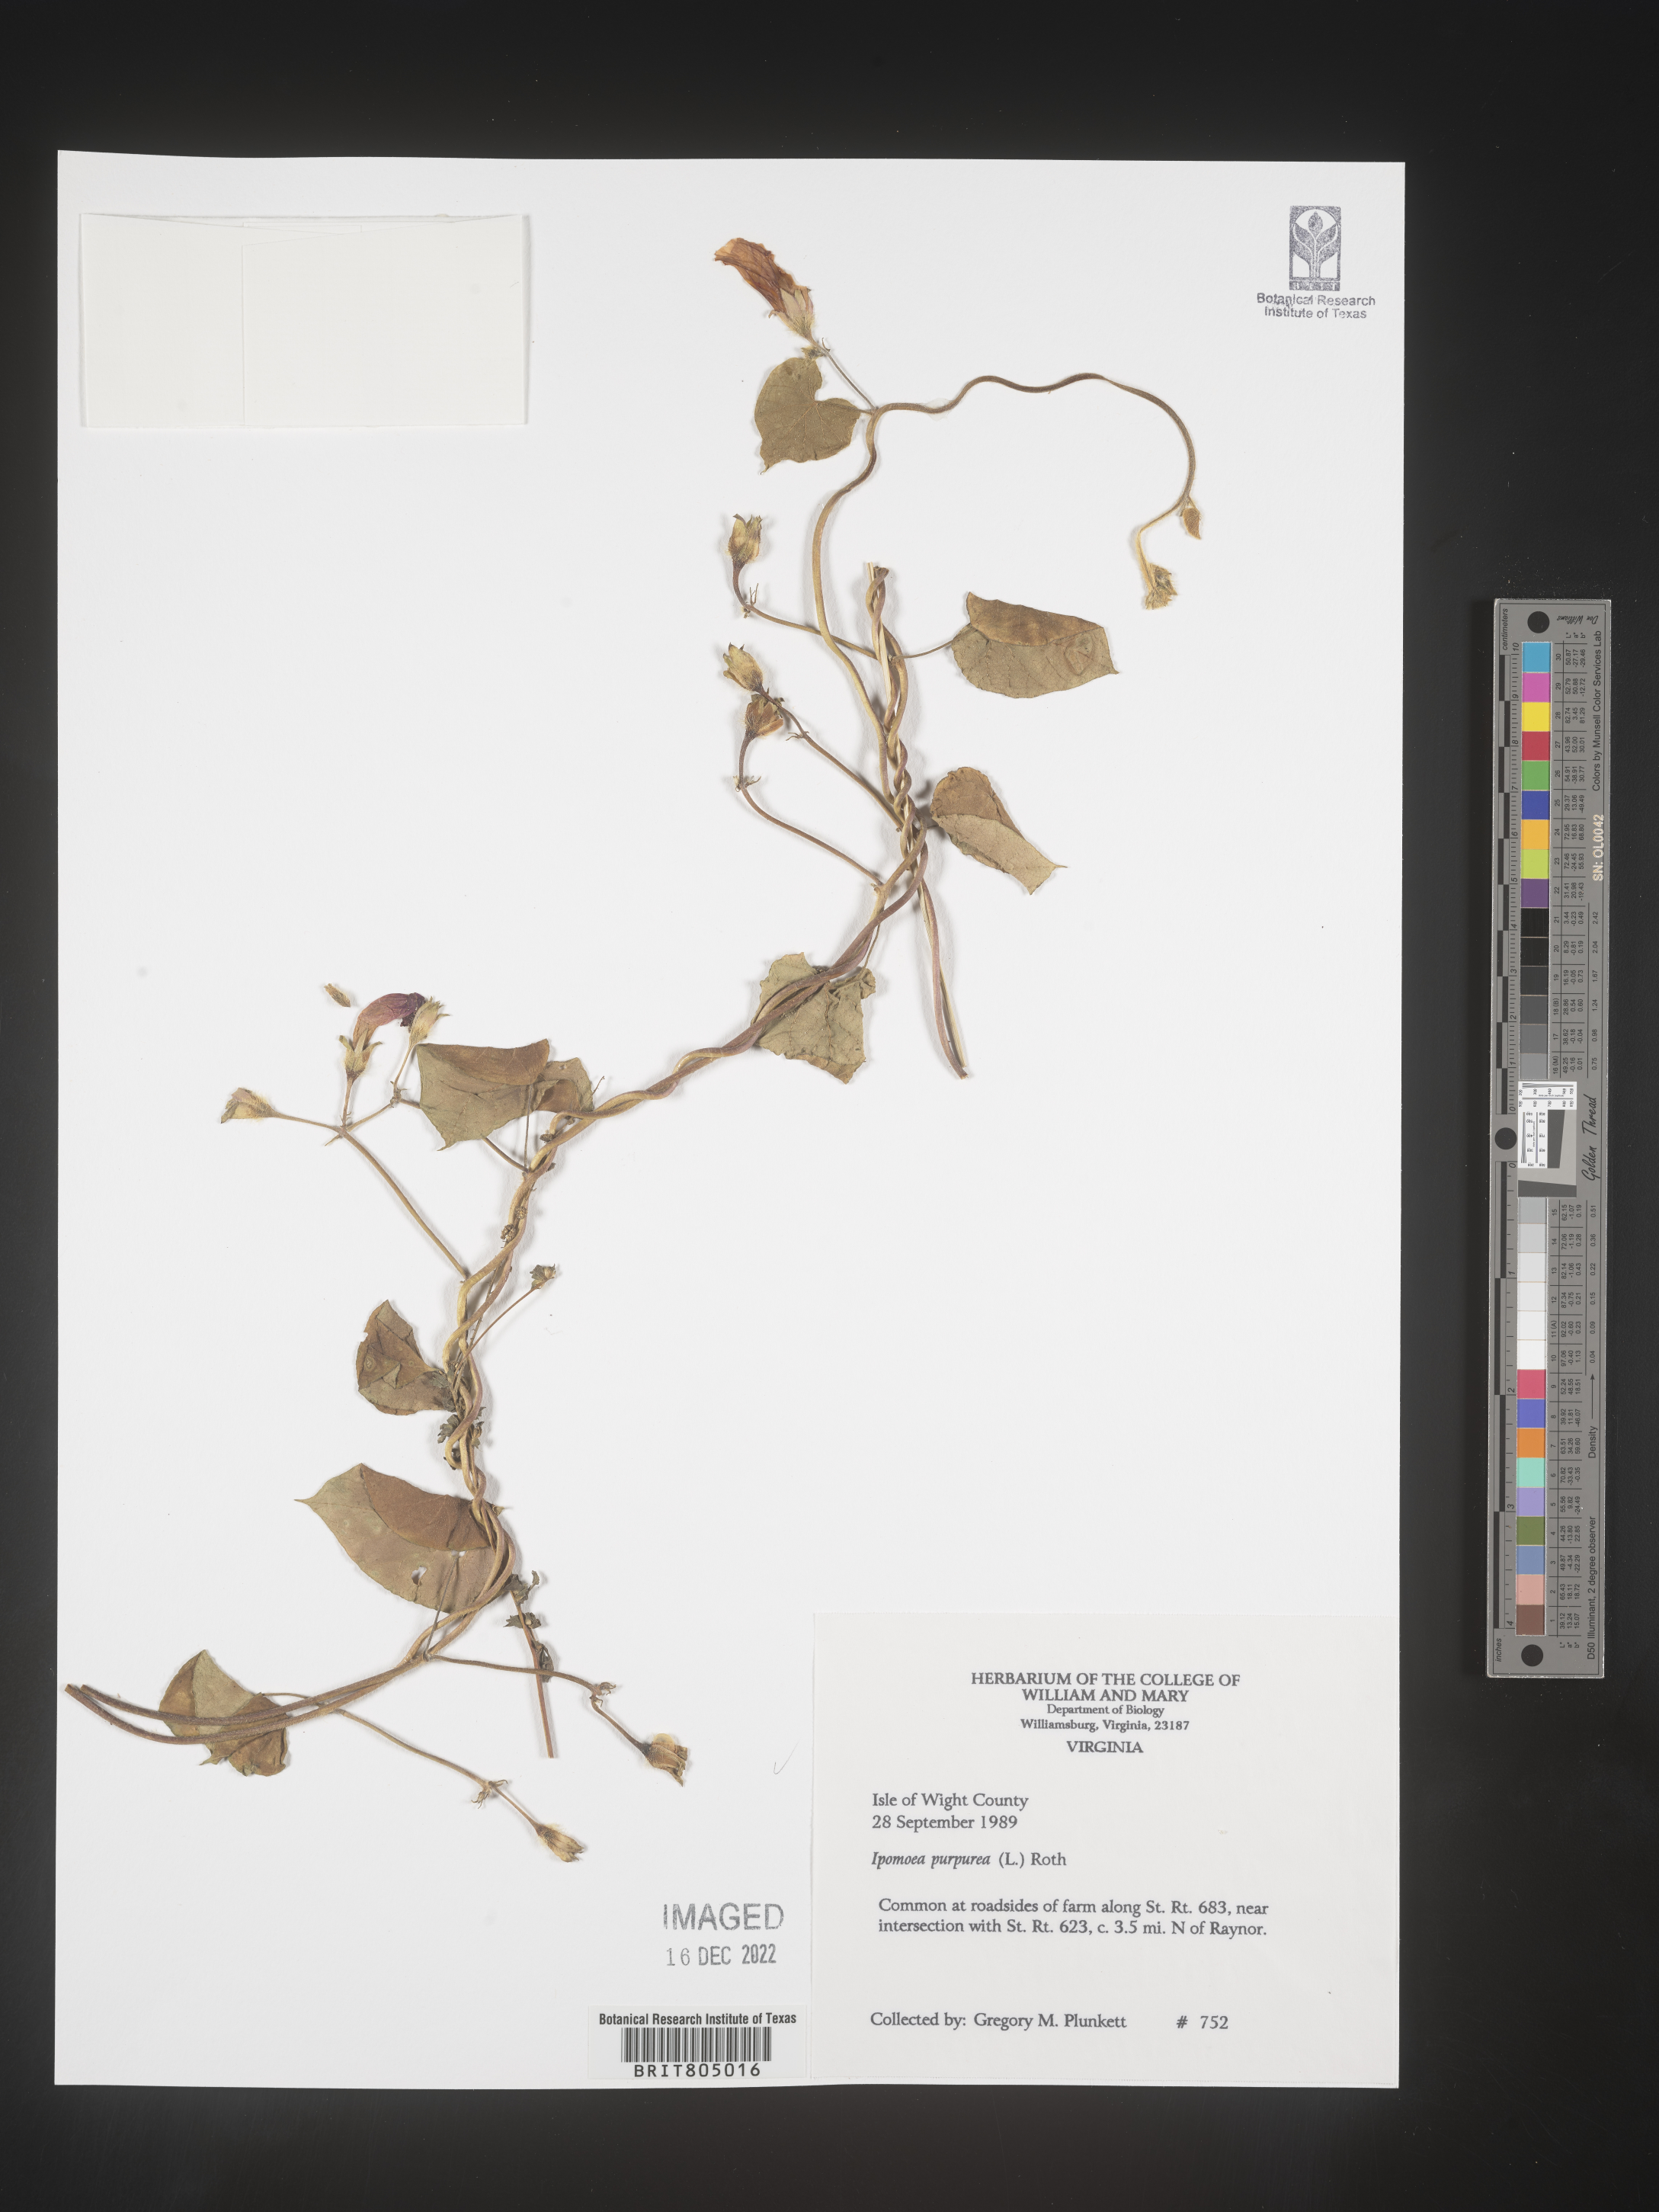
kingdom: Plantae
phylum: Tracheophyta
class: Magnoliopsida
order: Solanales
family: Convolvulaceae
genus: Ipomoea
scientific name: Ipomoea purpurea
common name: Common morning-glory
